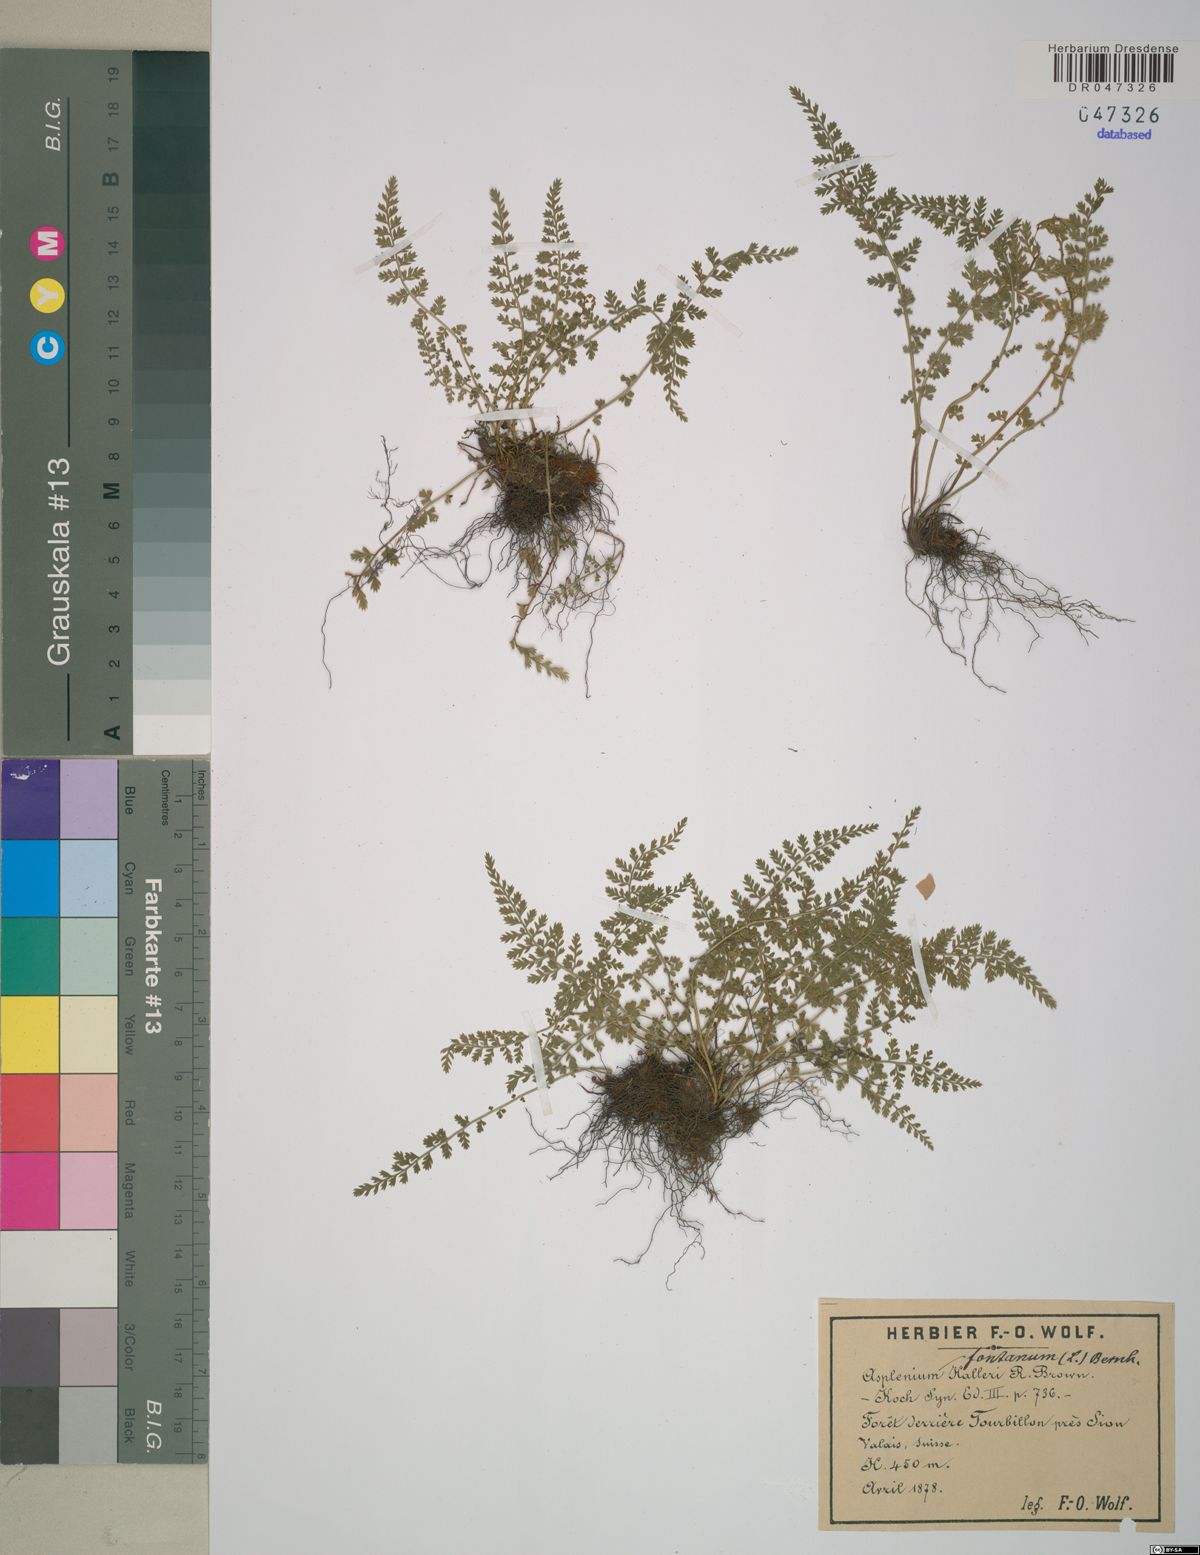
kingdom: Plantae
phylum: Tracheophyta
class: Polypodiopsida
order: Polypodiales
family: Aspleniaceae
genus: Asplenium
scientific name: Asplenium fontanum
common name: Fountain spleenwort
